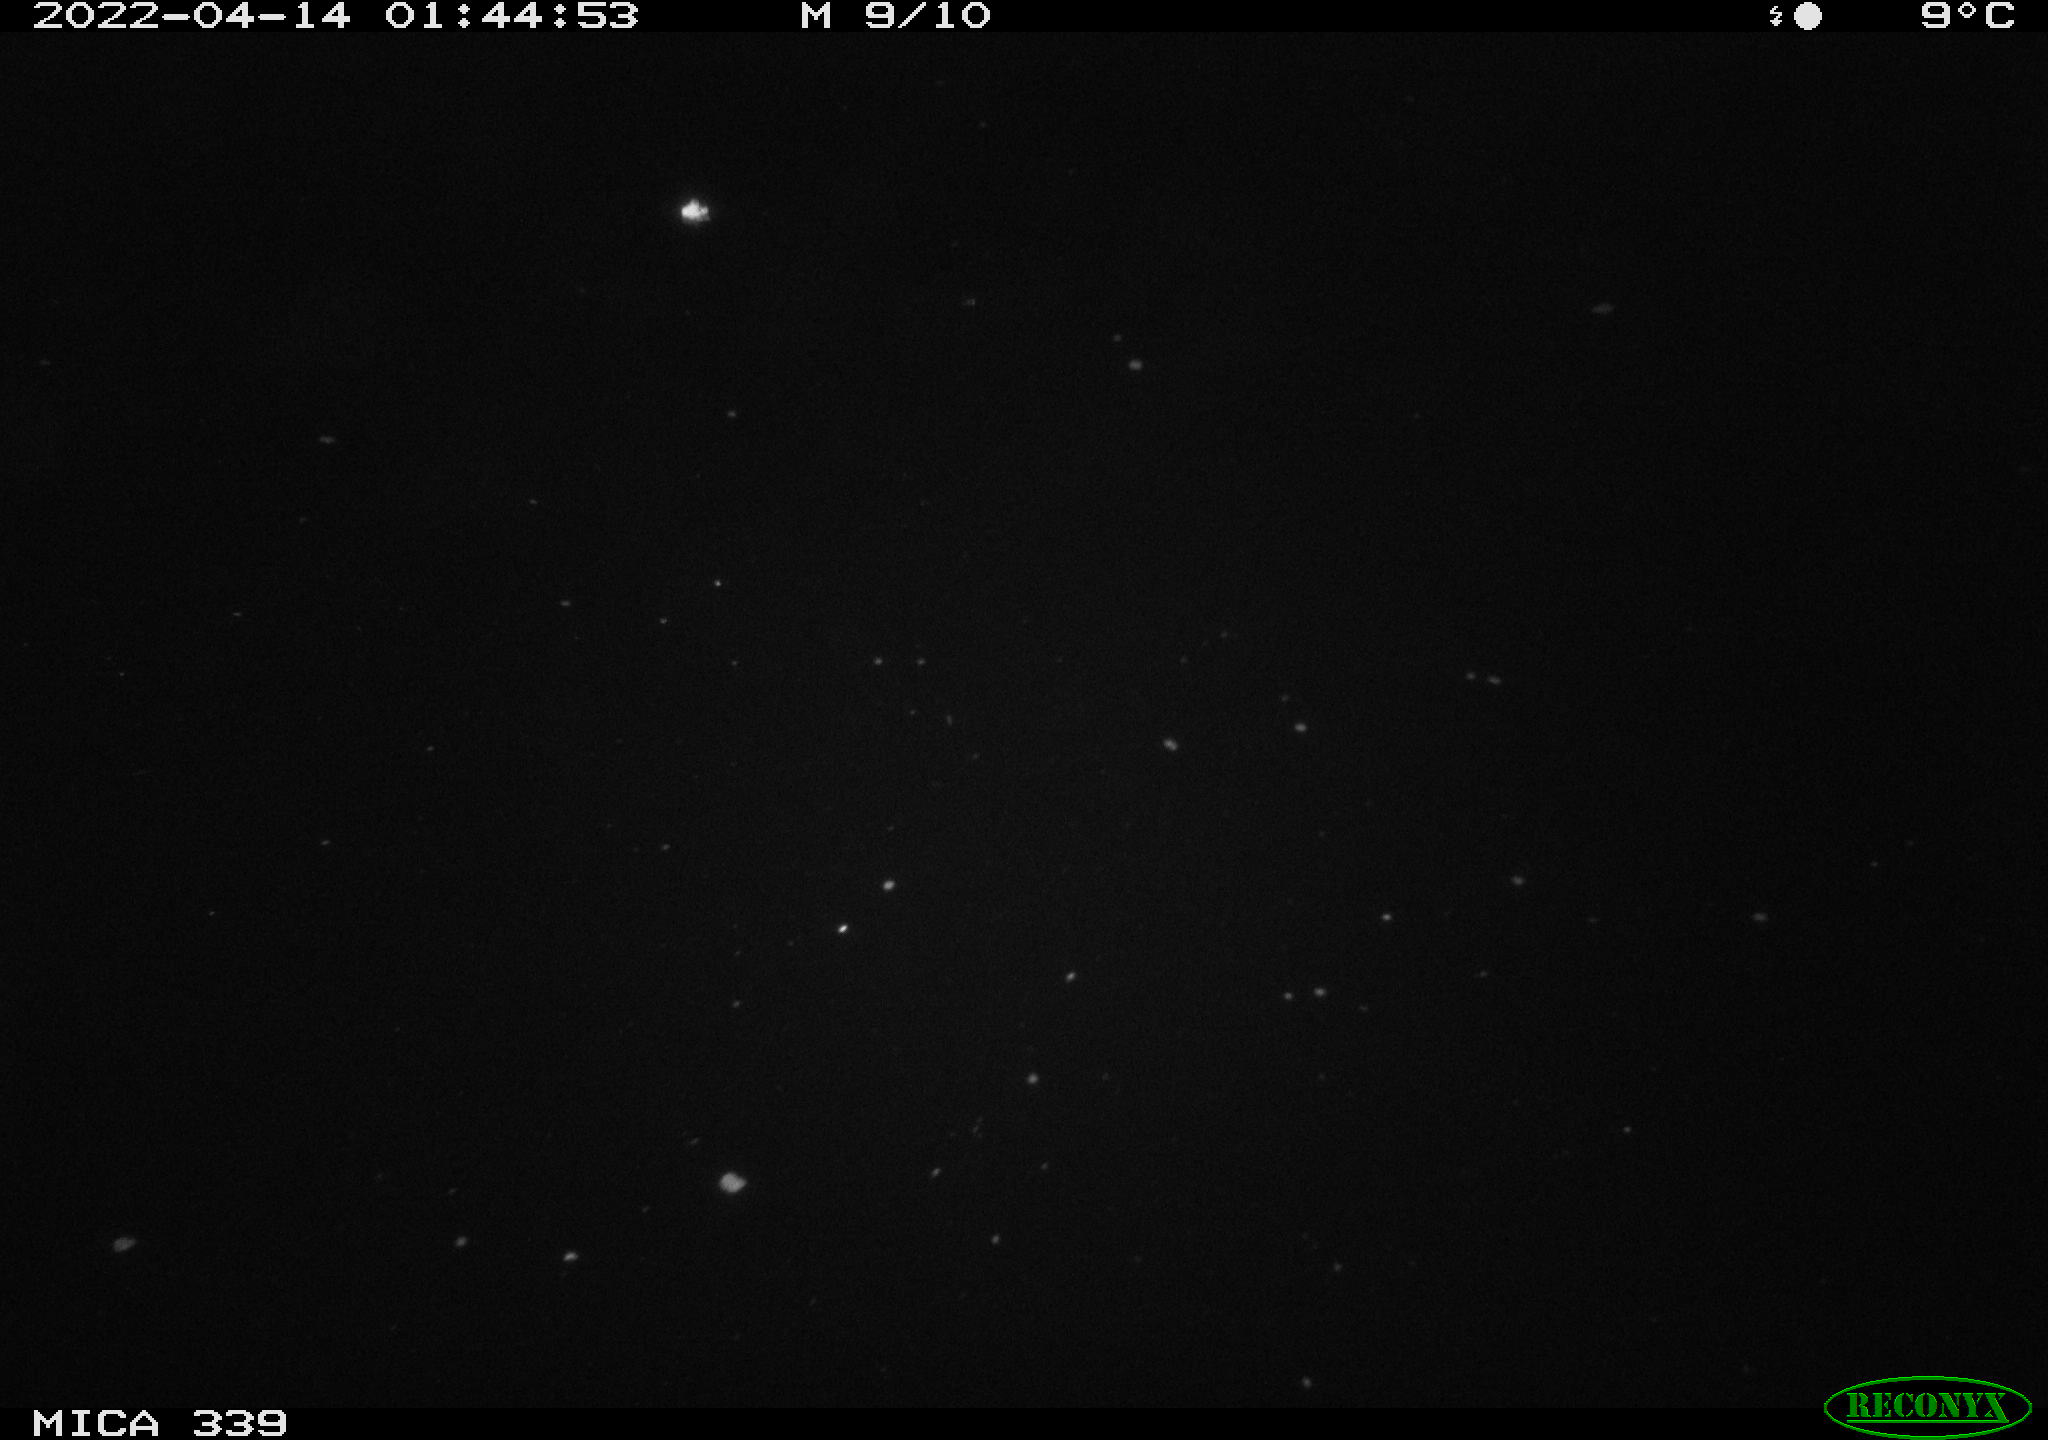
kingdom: Animalia
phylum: Chordata
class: Mammalia
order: Rodentia
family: Muridae
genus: Rattus
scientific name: Rattus norvegicus
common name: Brown rat
